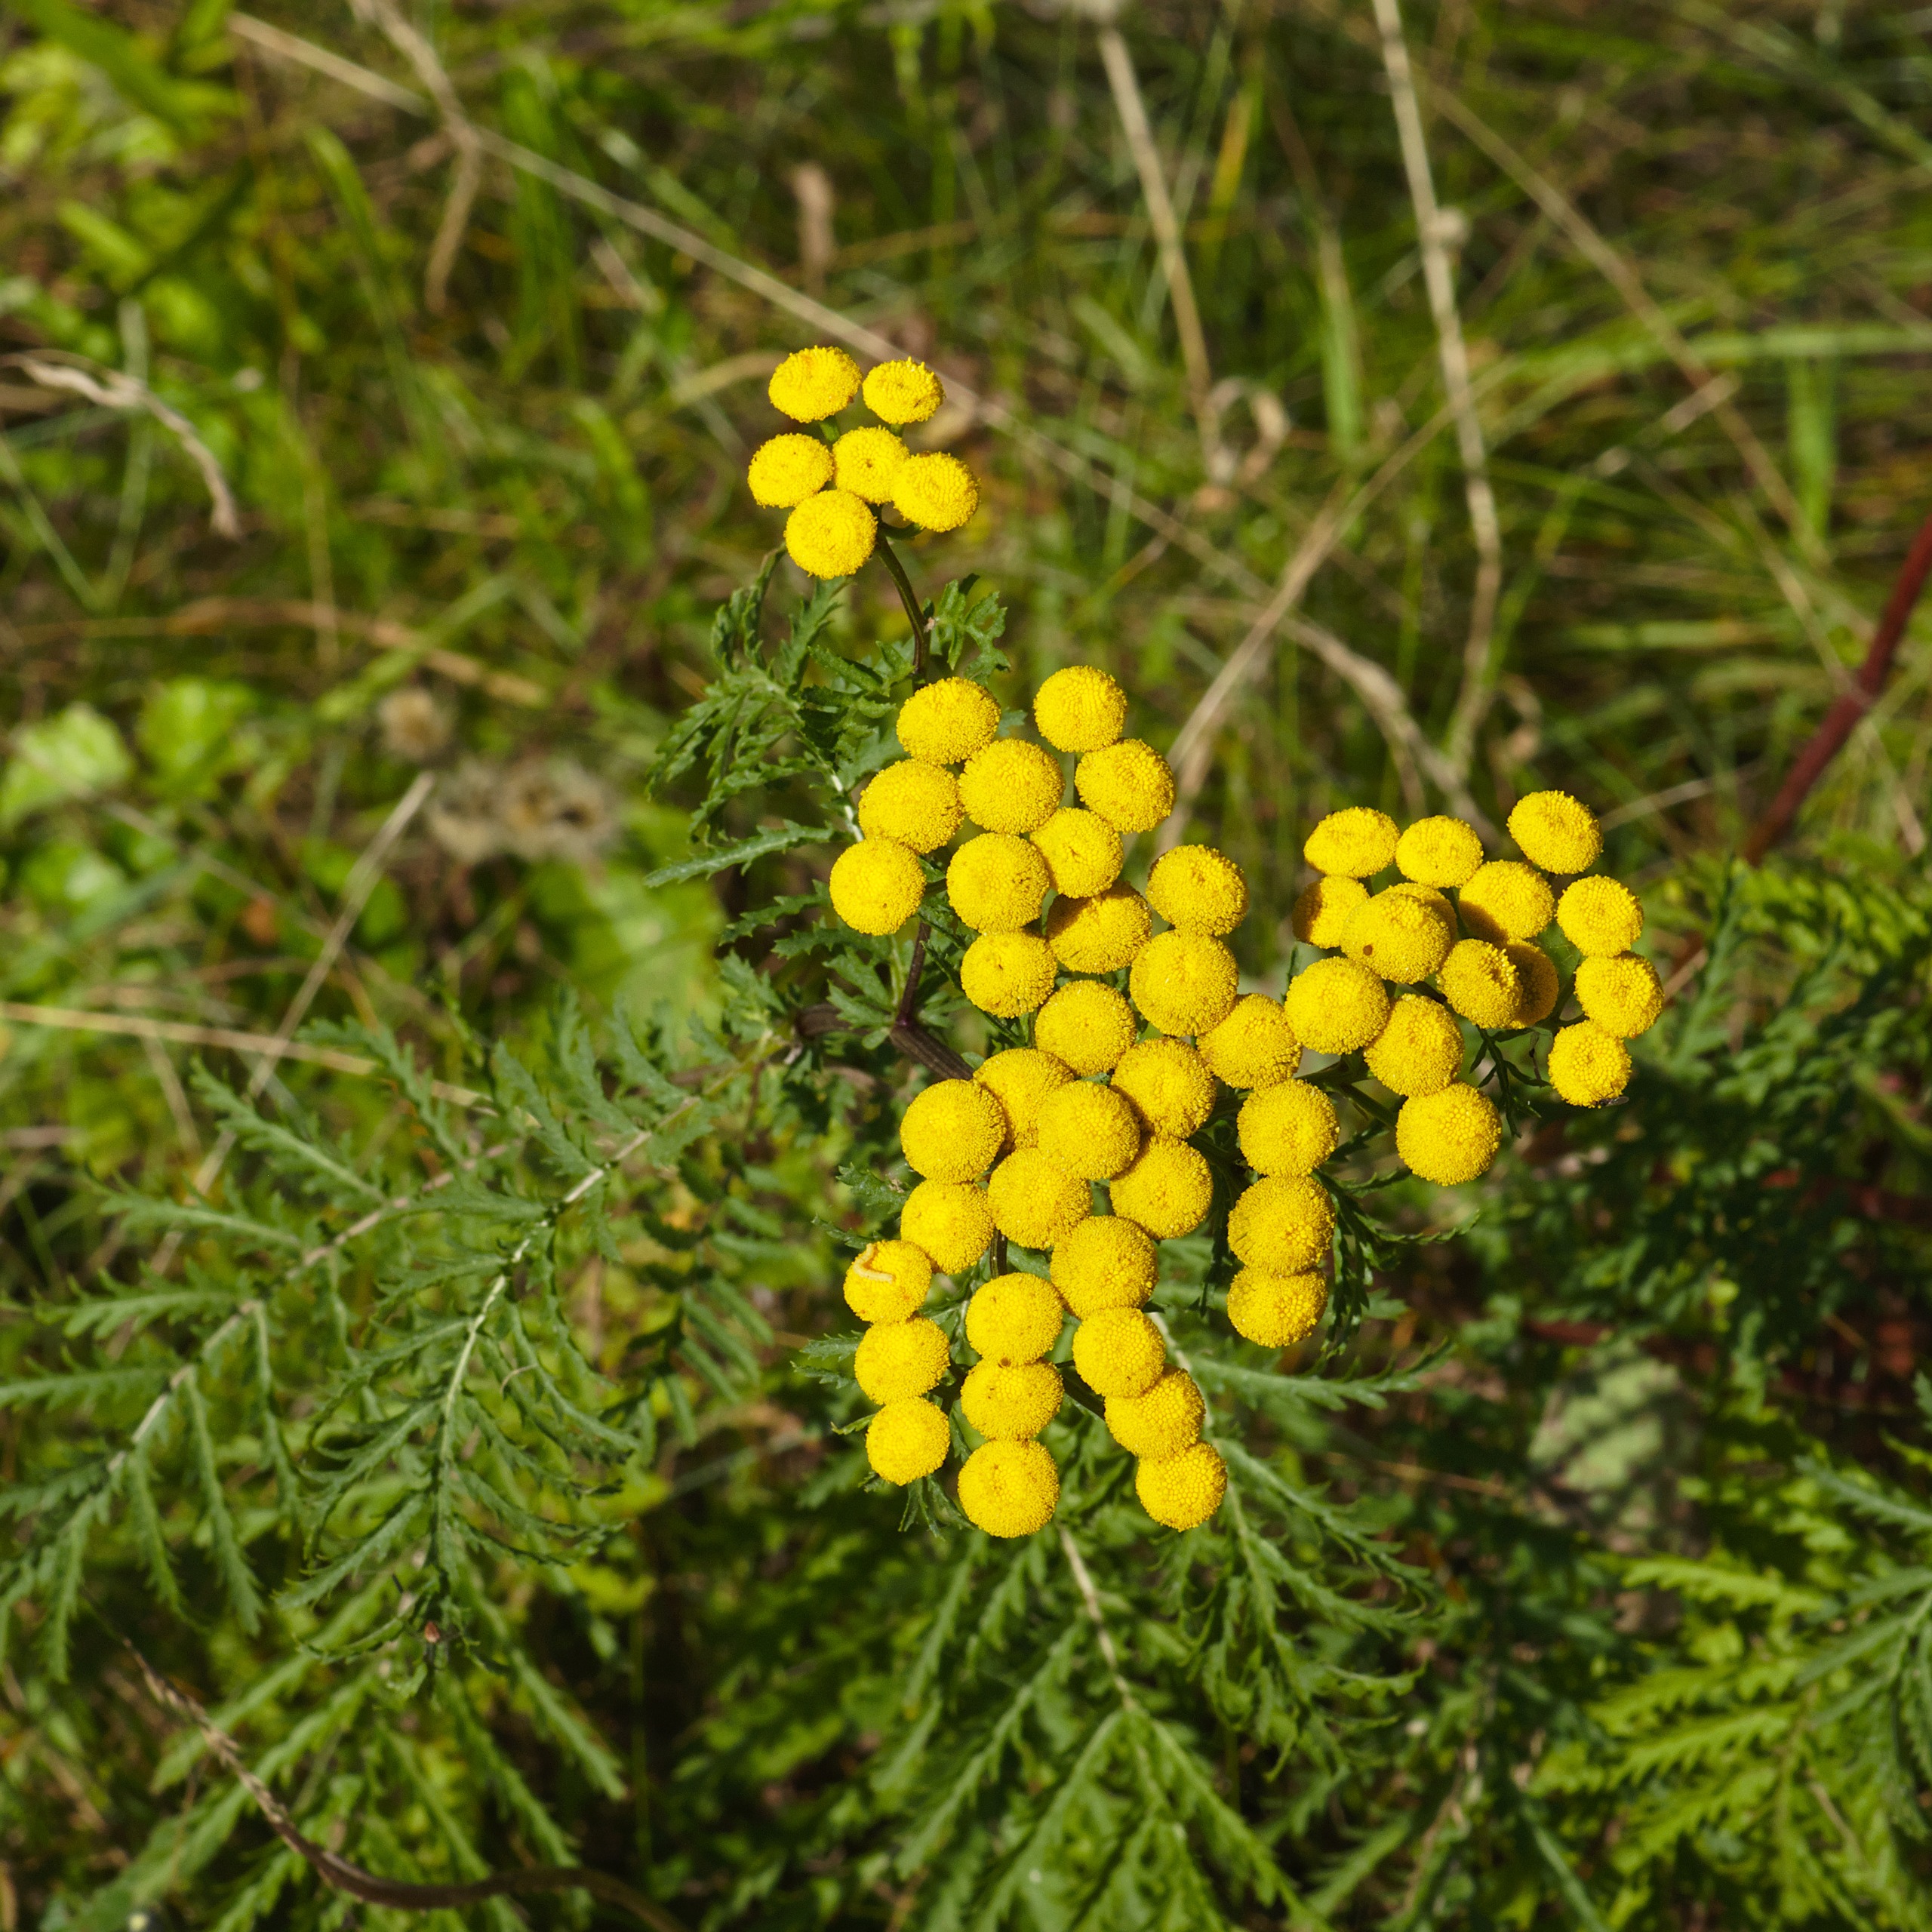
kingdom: Plantae
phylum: Tracheophyta
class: Magnoliopsida
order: Asterales
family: Asteraceae
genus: Tanacetum
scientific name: Tanacetum vulgare
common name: Rejnfan
